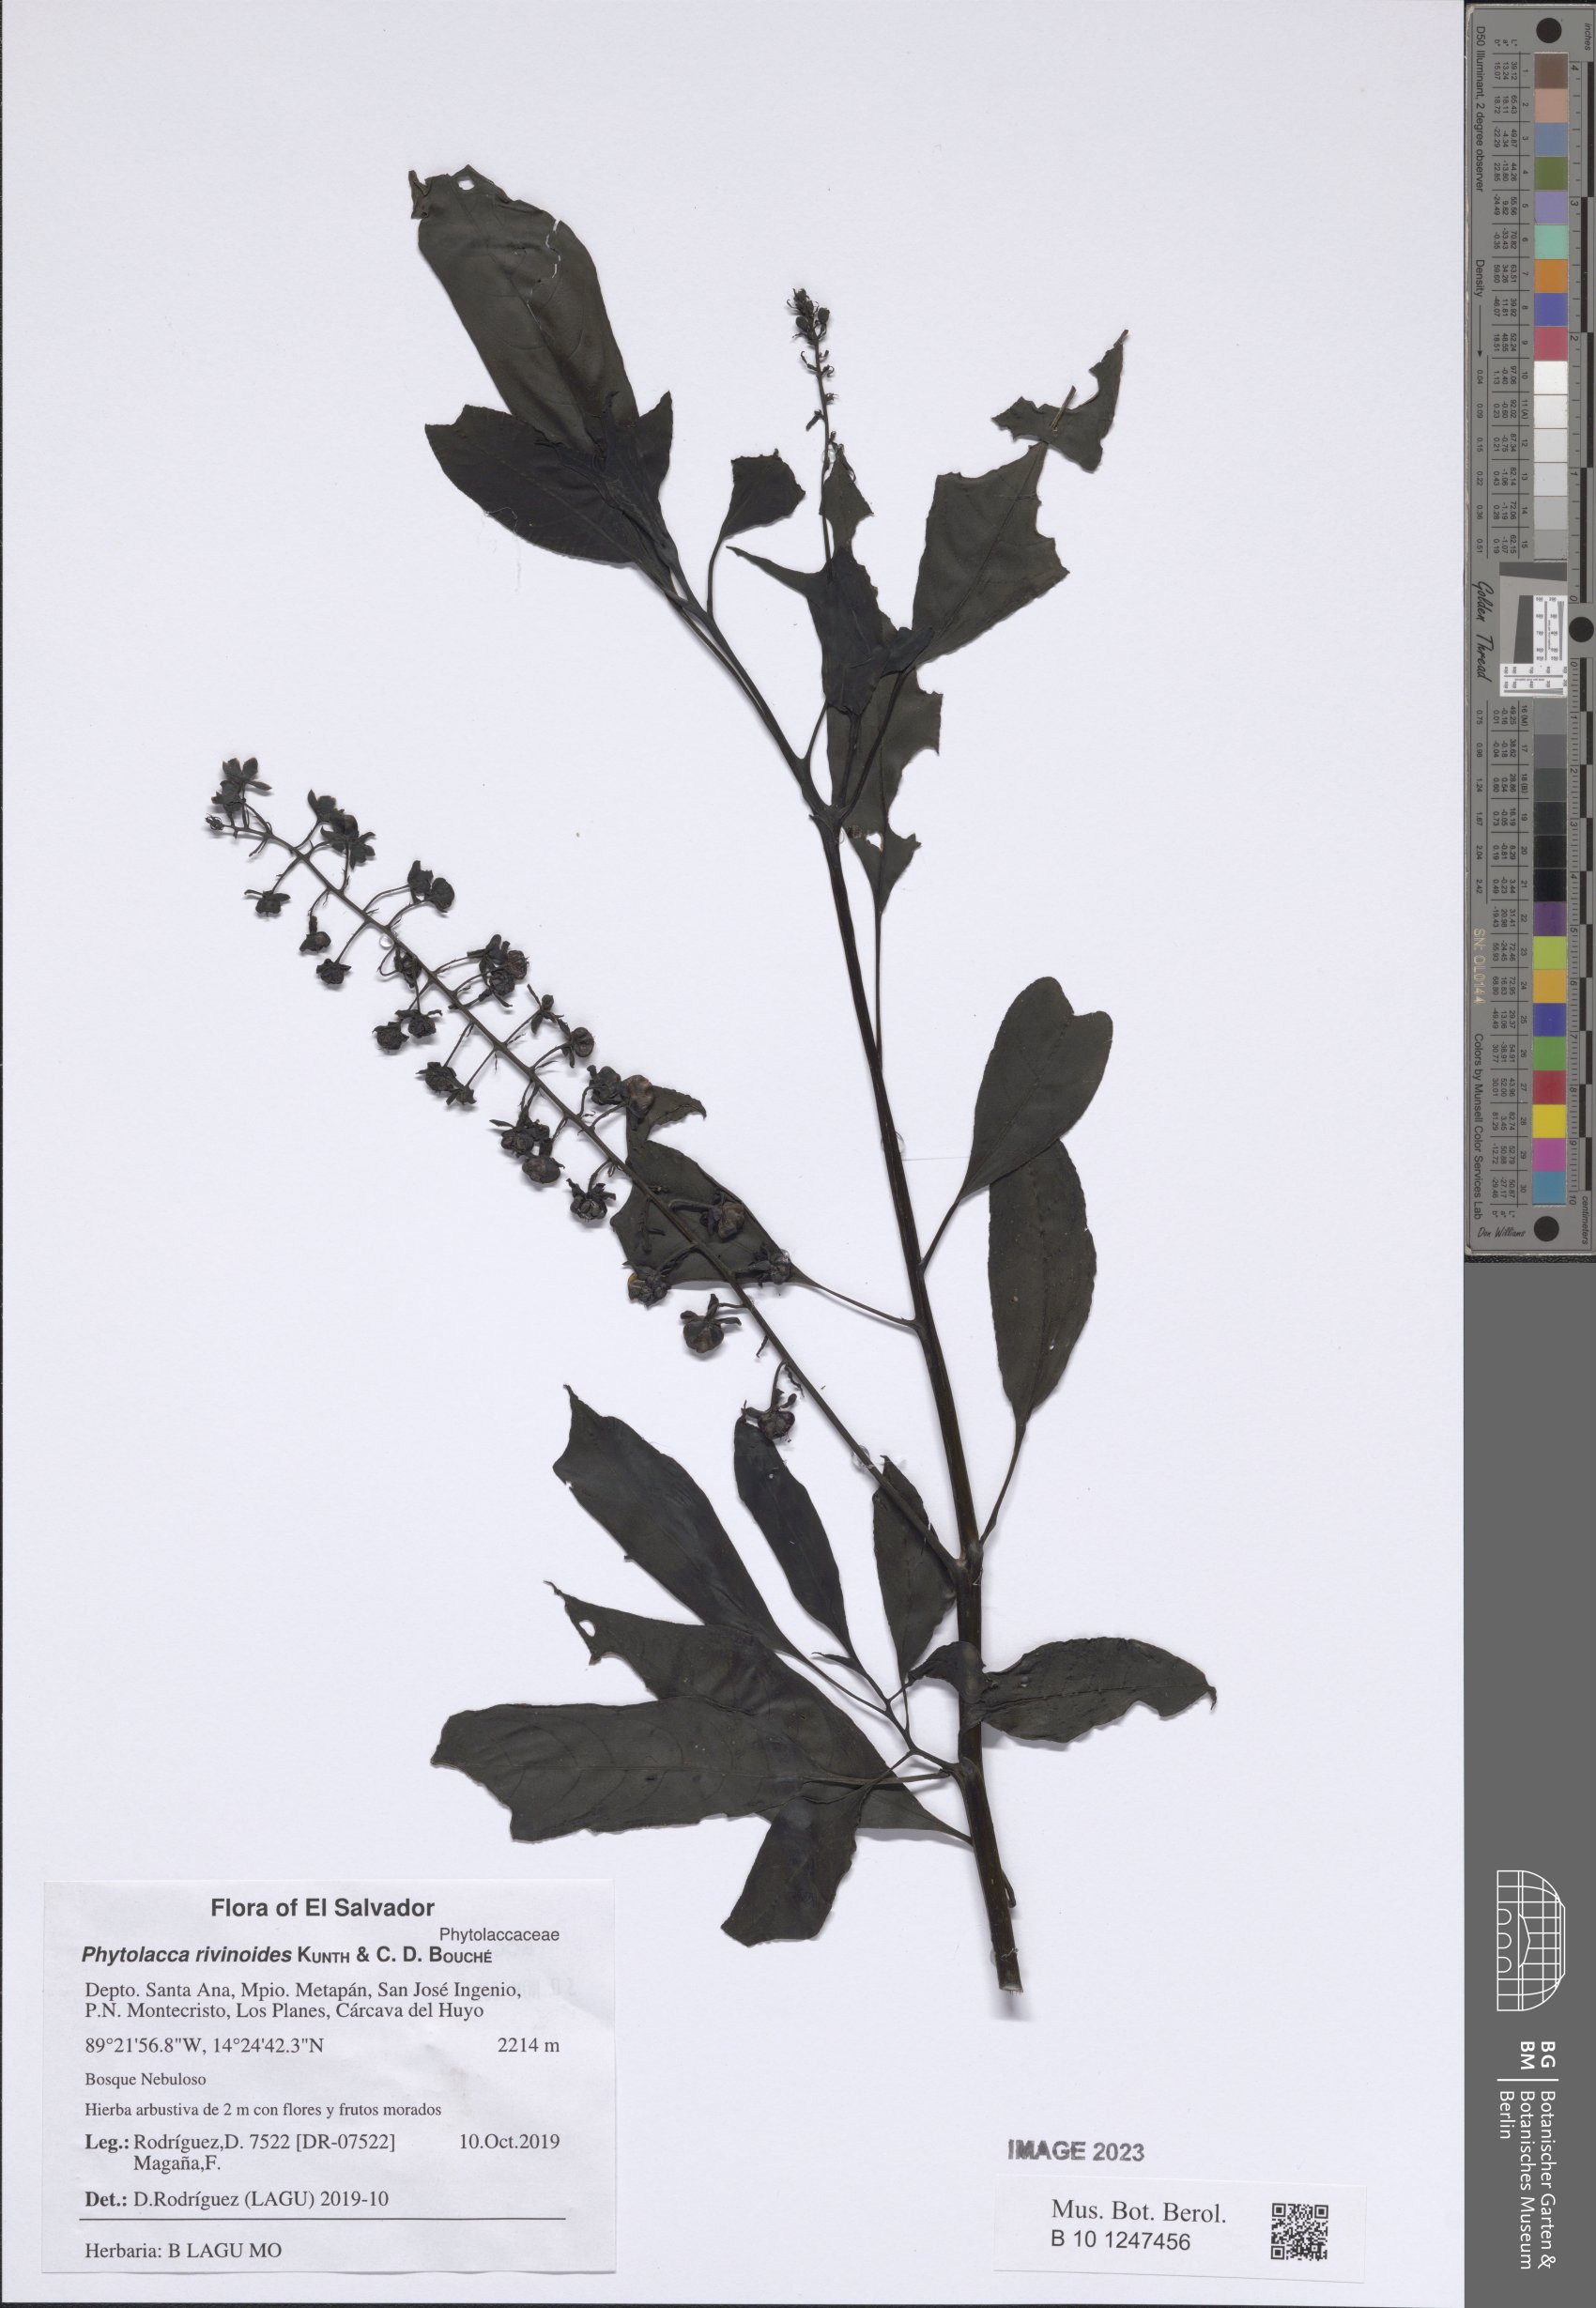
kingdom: Plantae
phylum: Tracheophyta
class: Magnoliopsida
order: Caryophyllales
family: Phytolaccaceae
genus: Phytolacca
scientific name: Phytolacca rivinoides
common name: Venezuelan pokeweed
